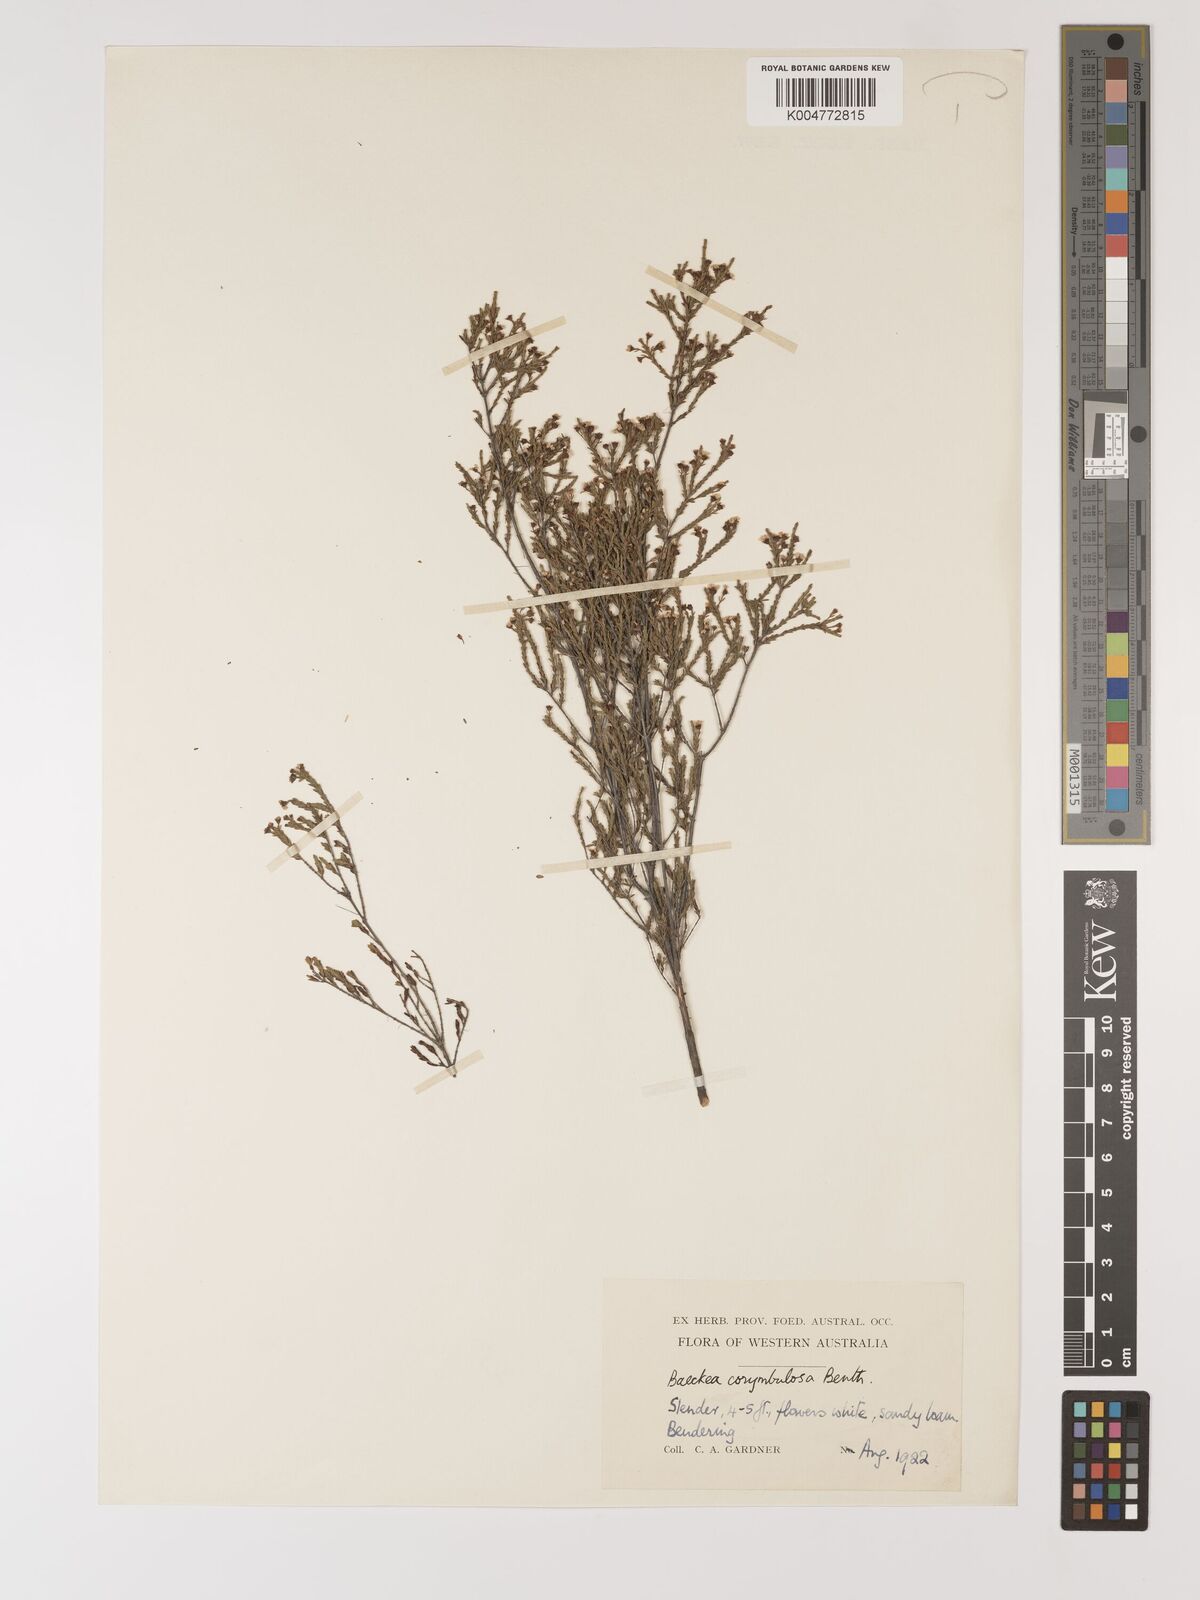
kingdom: Plantae
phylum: Tracheophyta
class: Magnoliopsida
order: Myrtales
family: Myrtaceae
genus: Ericomyrtus
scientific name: Ericomyrtus parviflora
